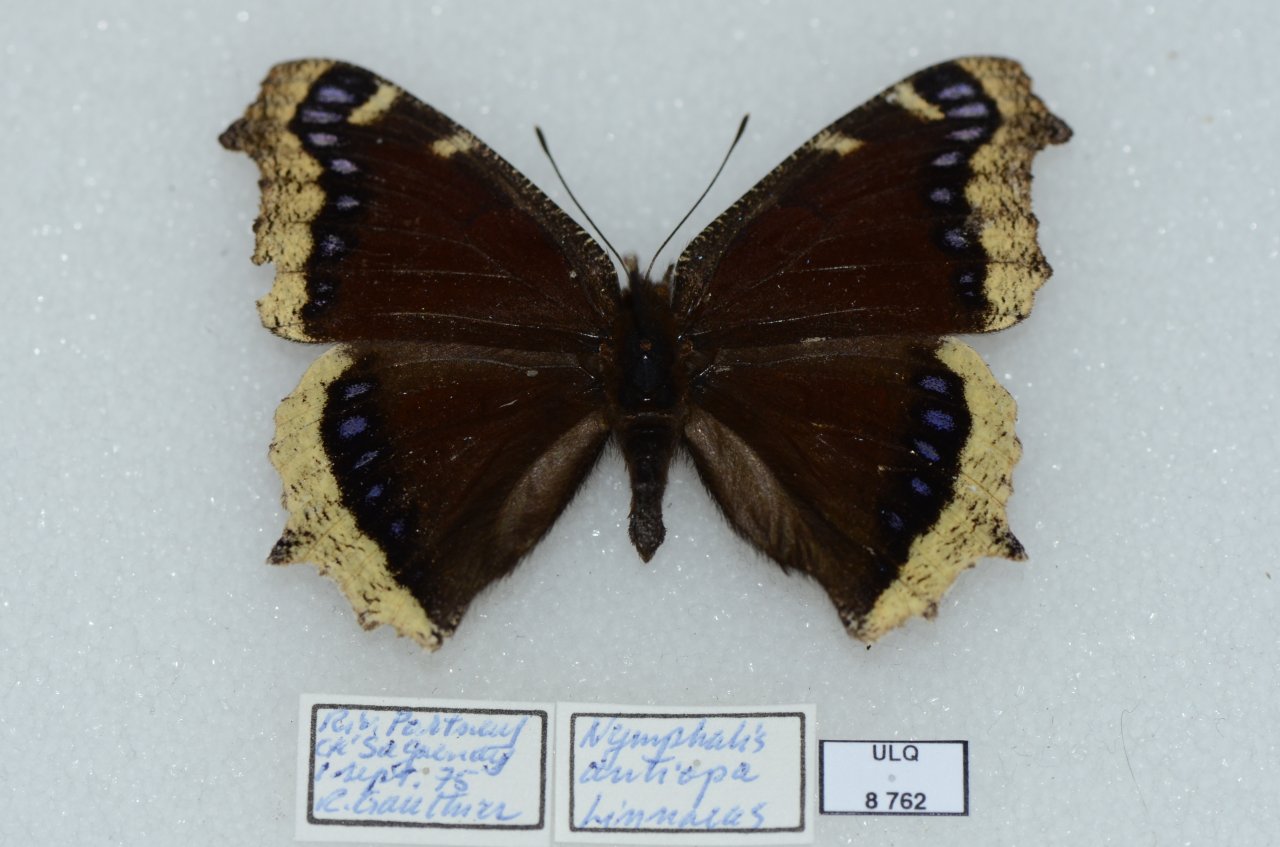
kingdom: Animalia
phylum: Arthropoda
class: Insecta
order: Lepidoptera
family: Nymphalidae
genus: Nymphalis
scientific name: Nymphalis antiopa
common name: Mourning Cloak
